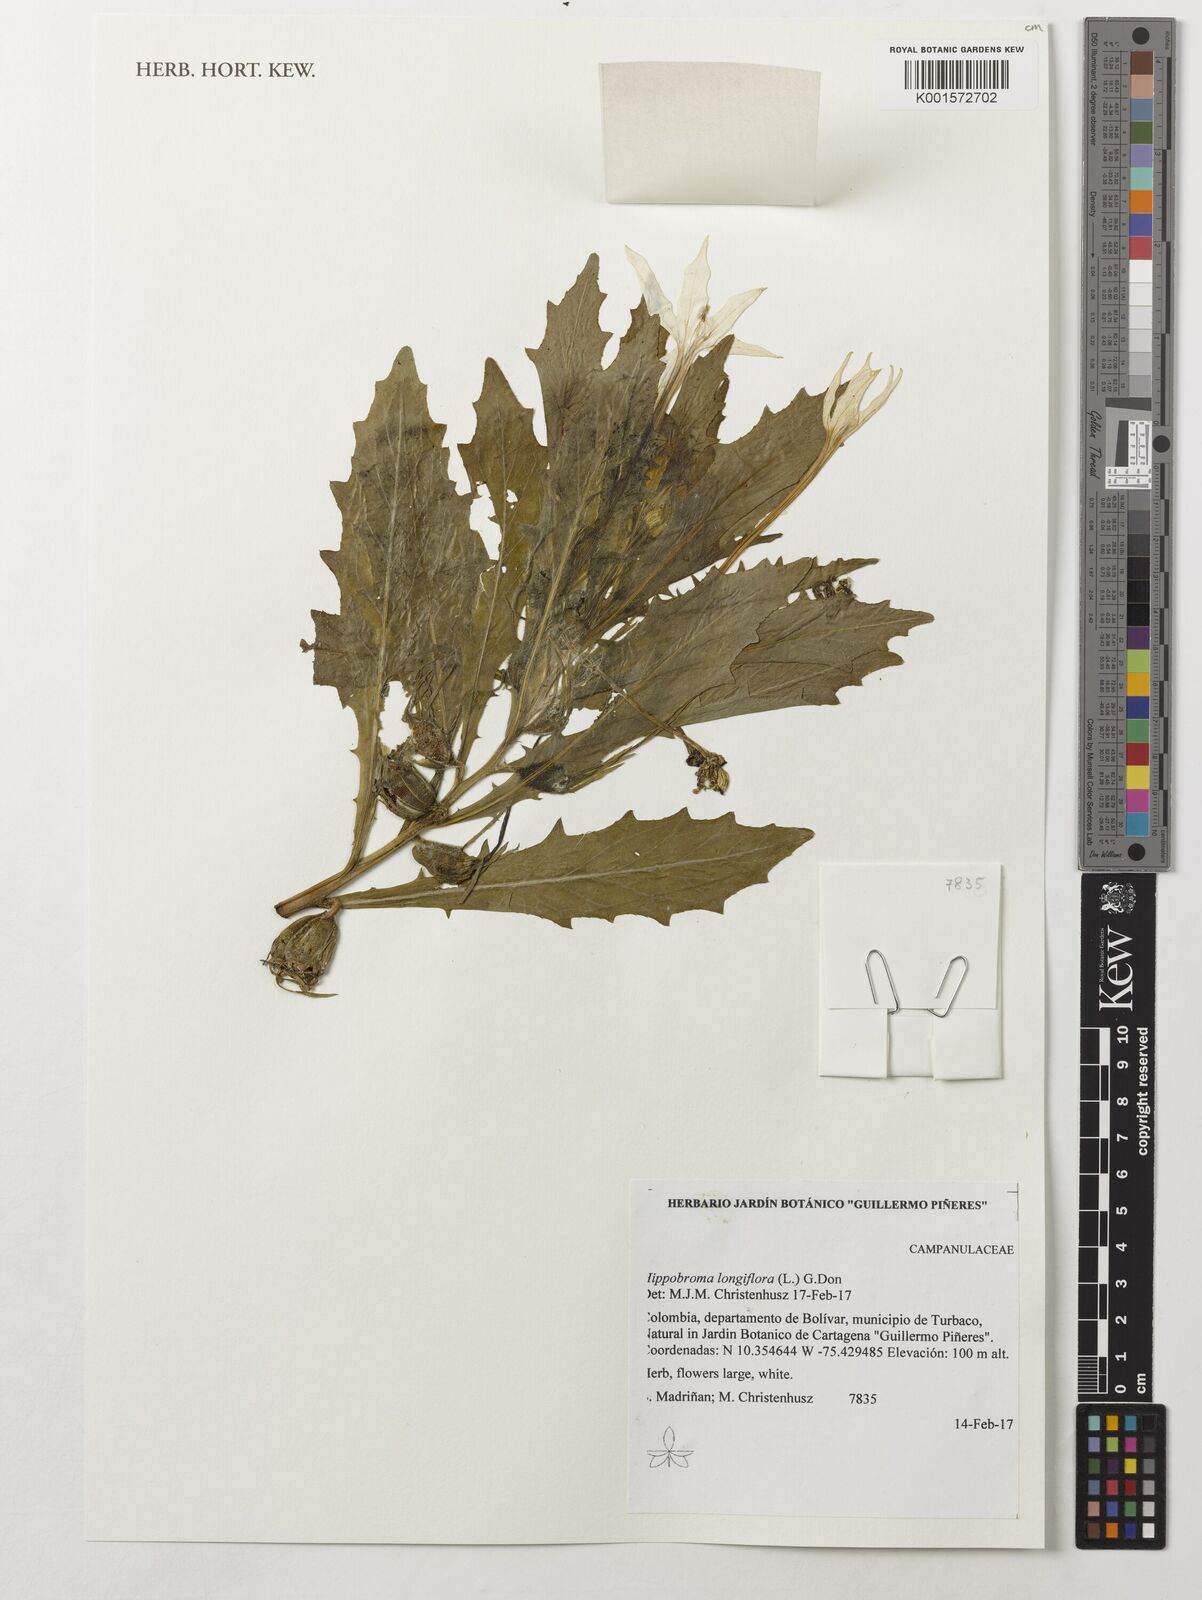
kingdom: Plantae
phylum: Tracheophyta
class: Magnoliopsida
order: Asterales
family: Campanulaceae
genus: Hippobroma
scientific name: Hippobroma longiflora
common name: Madamfate
